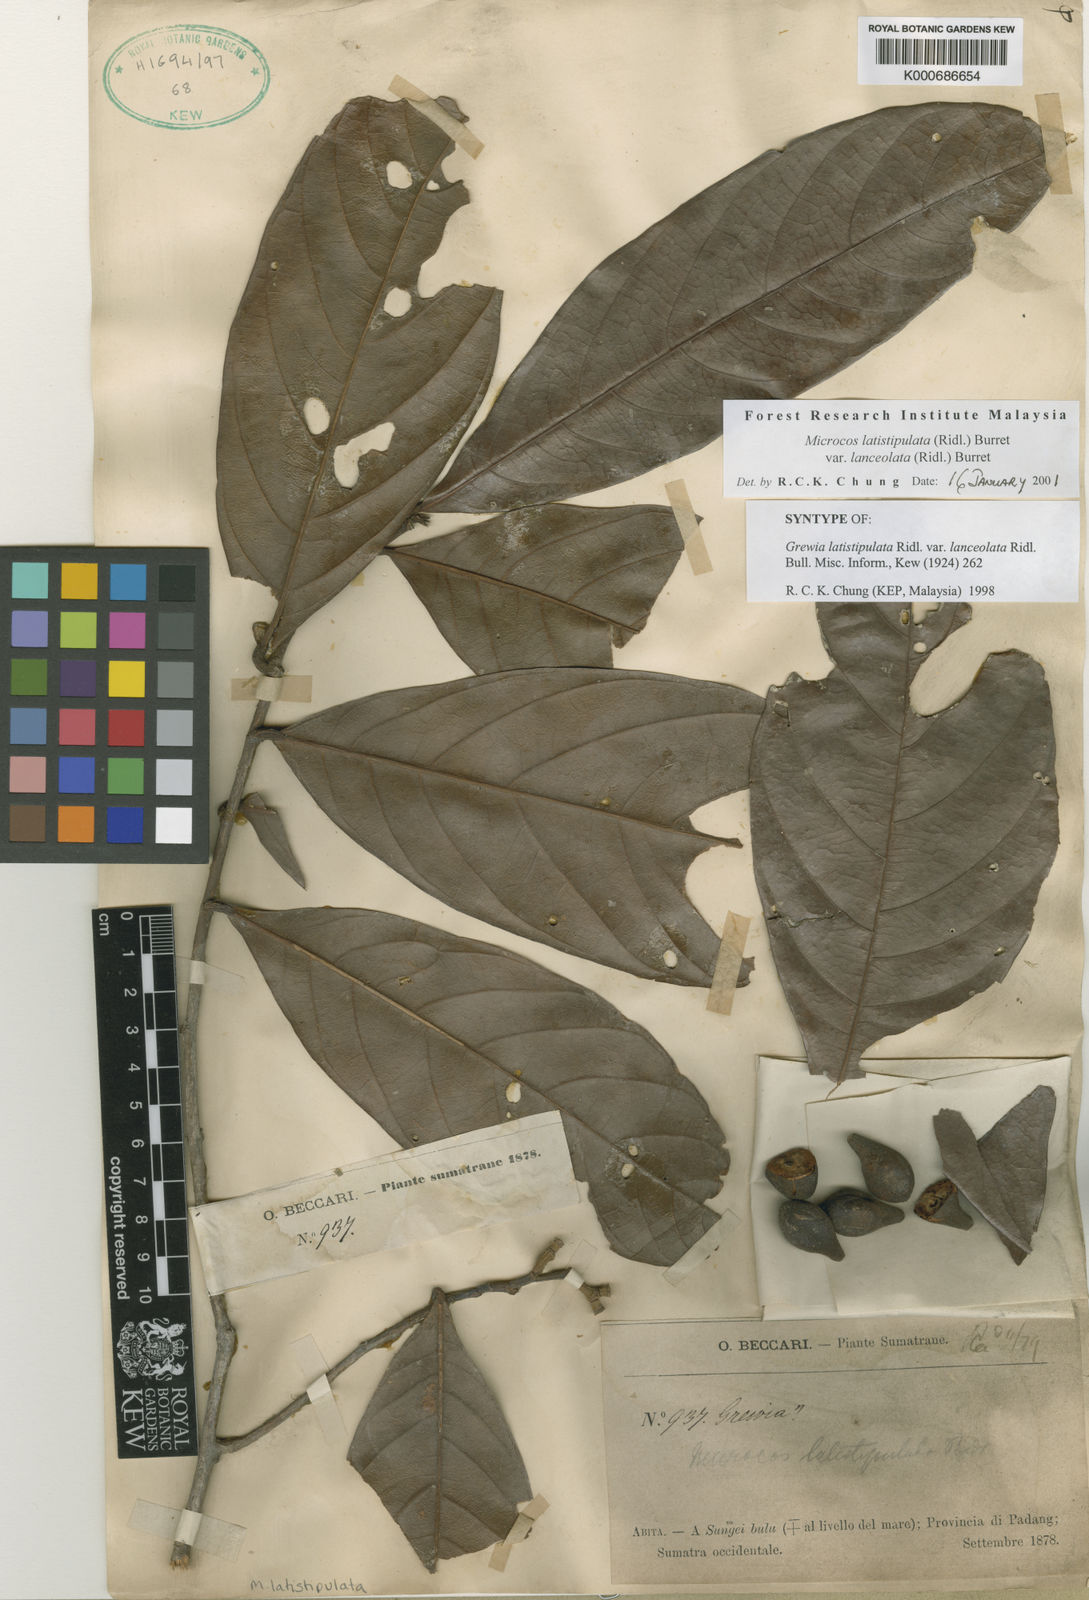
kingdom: Plantae
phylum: Tracheophyta
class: Magnoliopsida
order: Malvales
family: Malvaceae
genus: Microcos
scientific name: Microcos latistipulata
